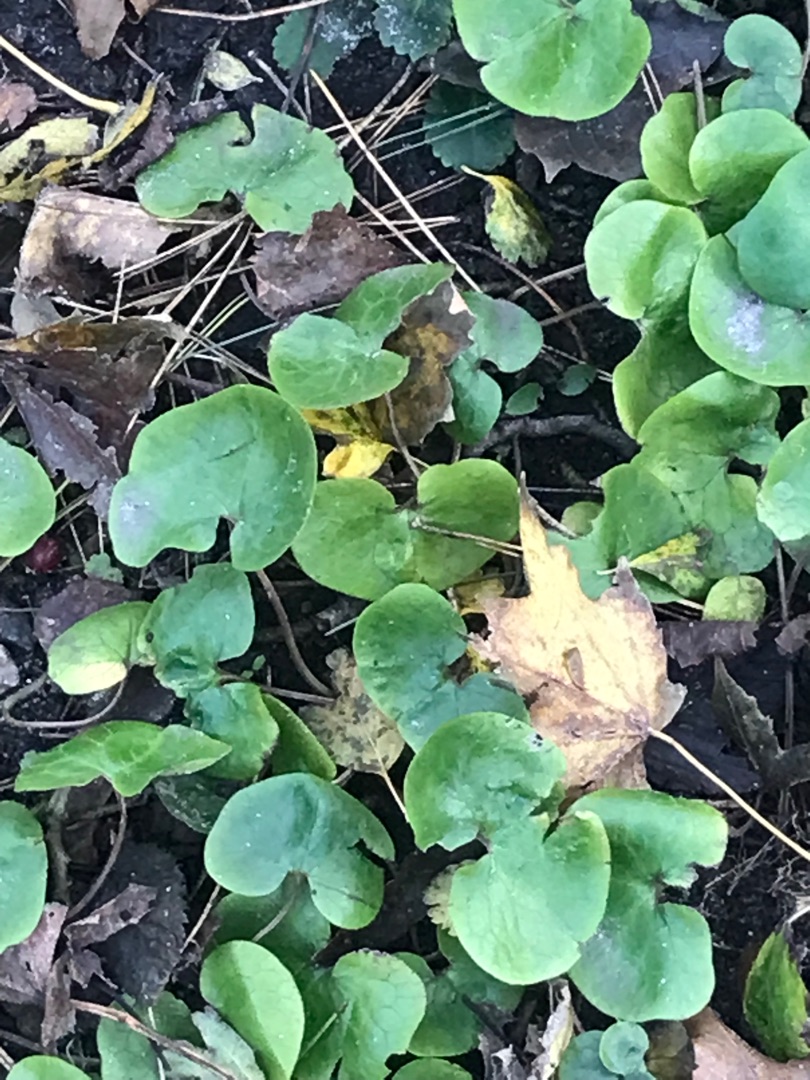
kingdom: Plantae
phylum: Tracheophyta
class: Magnoliopsida
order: Piperales
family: Aristolochiaceae
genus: Asarum
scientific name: Asarum europaeum
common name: Hasselurt
